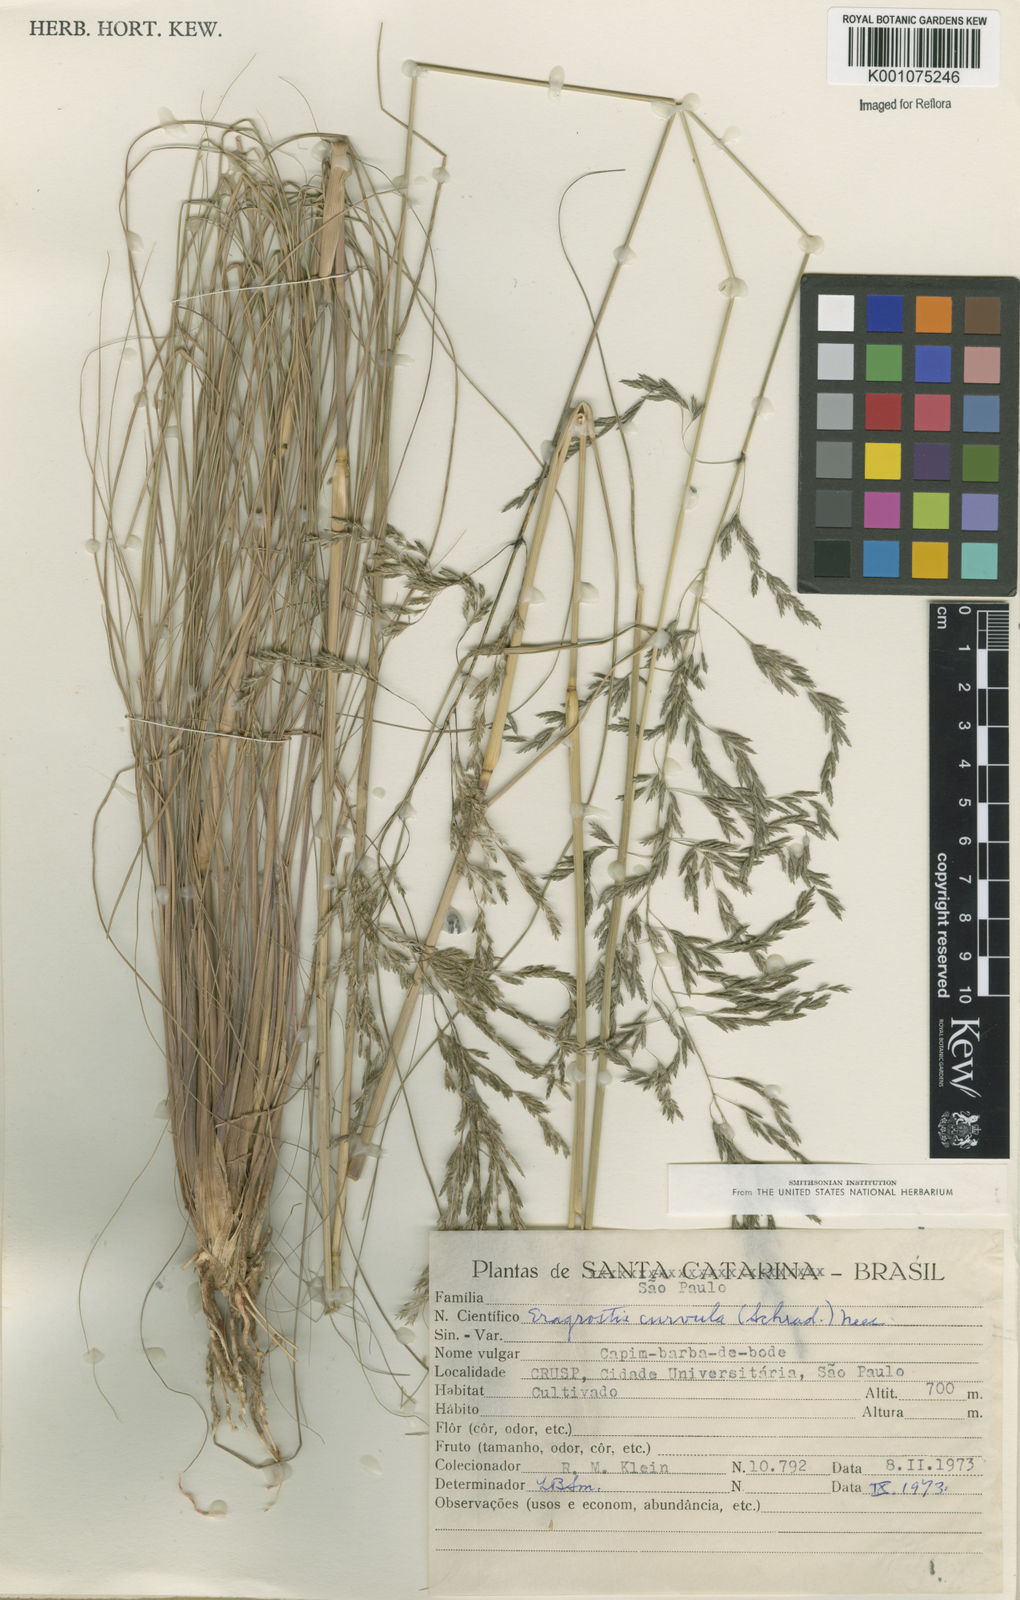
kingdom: Plantae
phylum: Tracheophyta
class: Liliopsida
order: Poales
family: Poaceae
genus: Eragrostis
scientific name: Eragrostis curvula
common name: African love-grass
